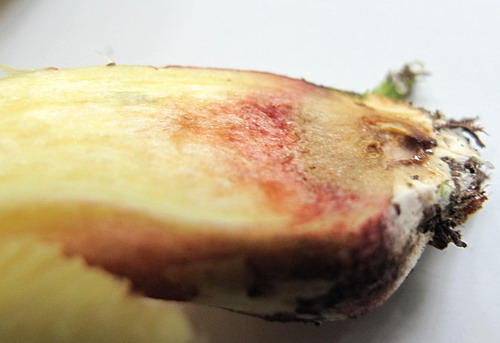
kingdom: Fungi
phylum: Basidiomycota
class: Agaricomycetes
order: Boletales
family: Boletaceae
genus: Xerocomellus
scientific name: Xerocomellus chrysenteron
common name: rødsprukken rørhat
